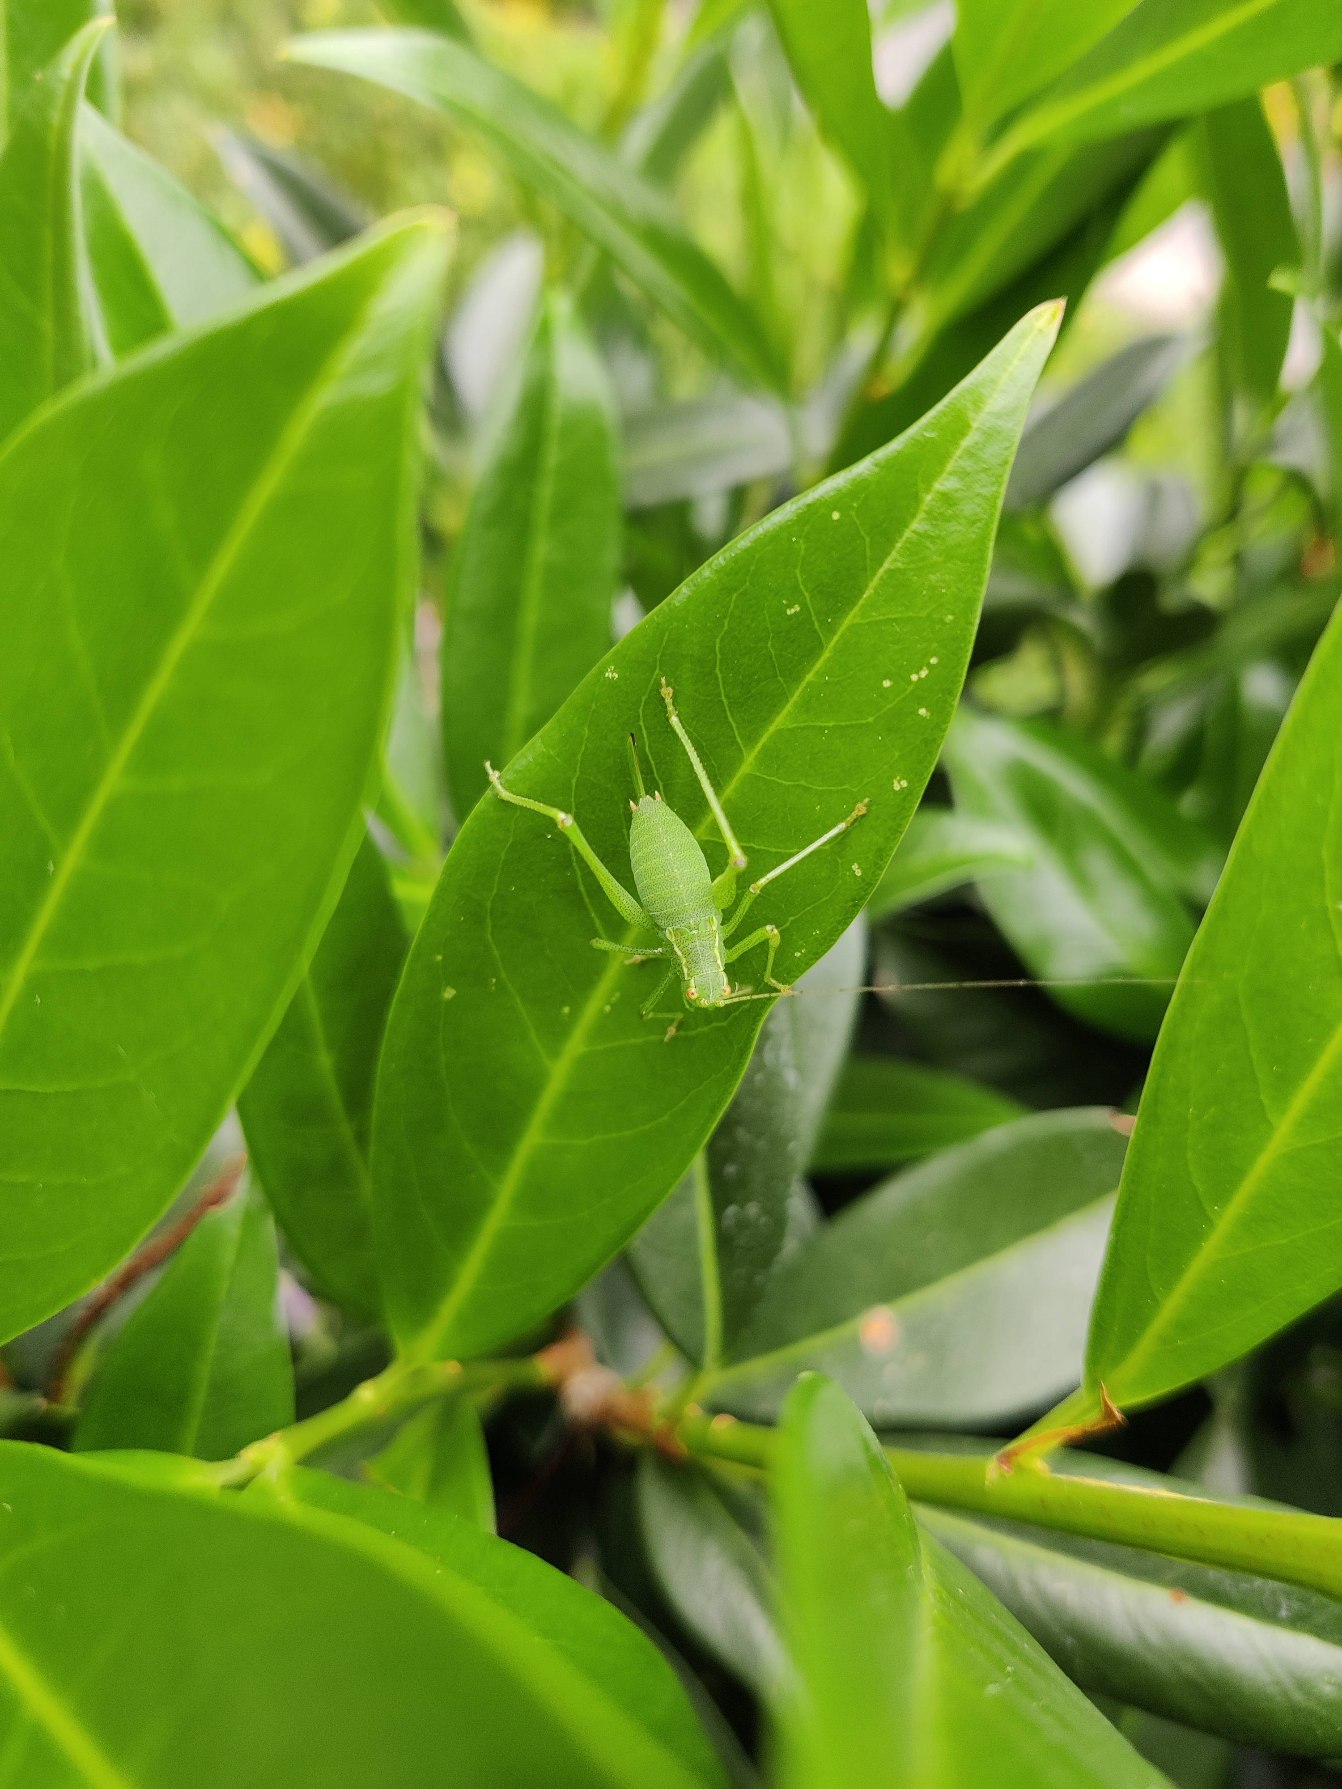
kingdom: Animalia
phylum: Arthropoda
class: Insecta
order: Orthoptera
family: Tettigoniidae
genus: Leptophyes
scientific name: Leptophyes punctatissima
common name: Krumknivgræshoppe
